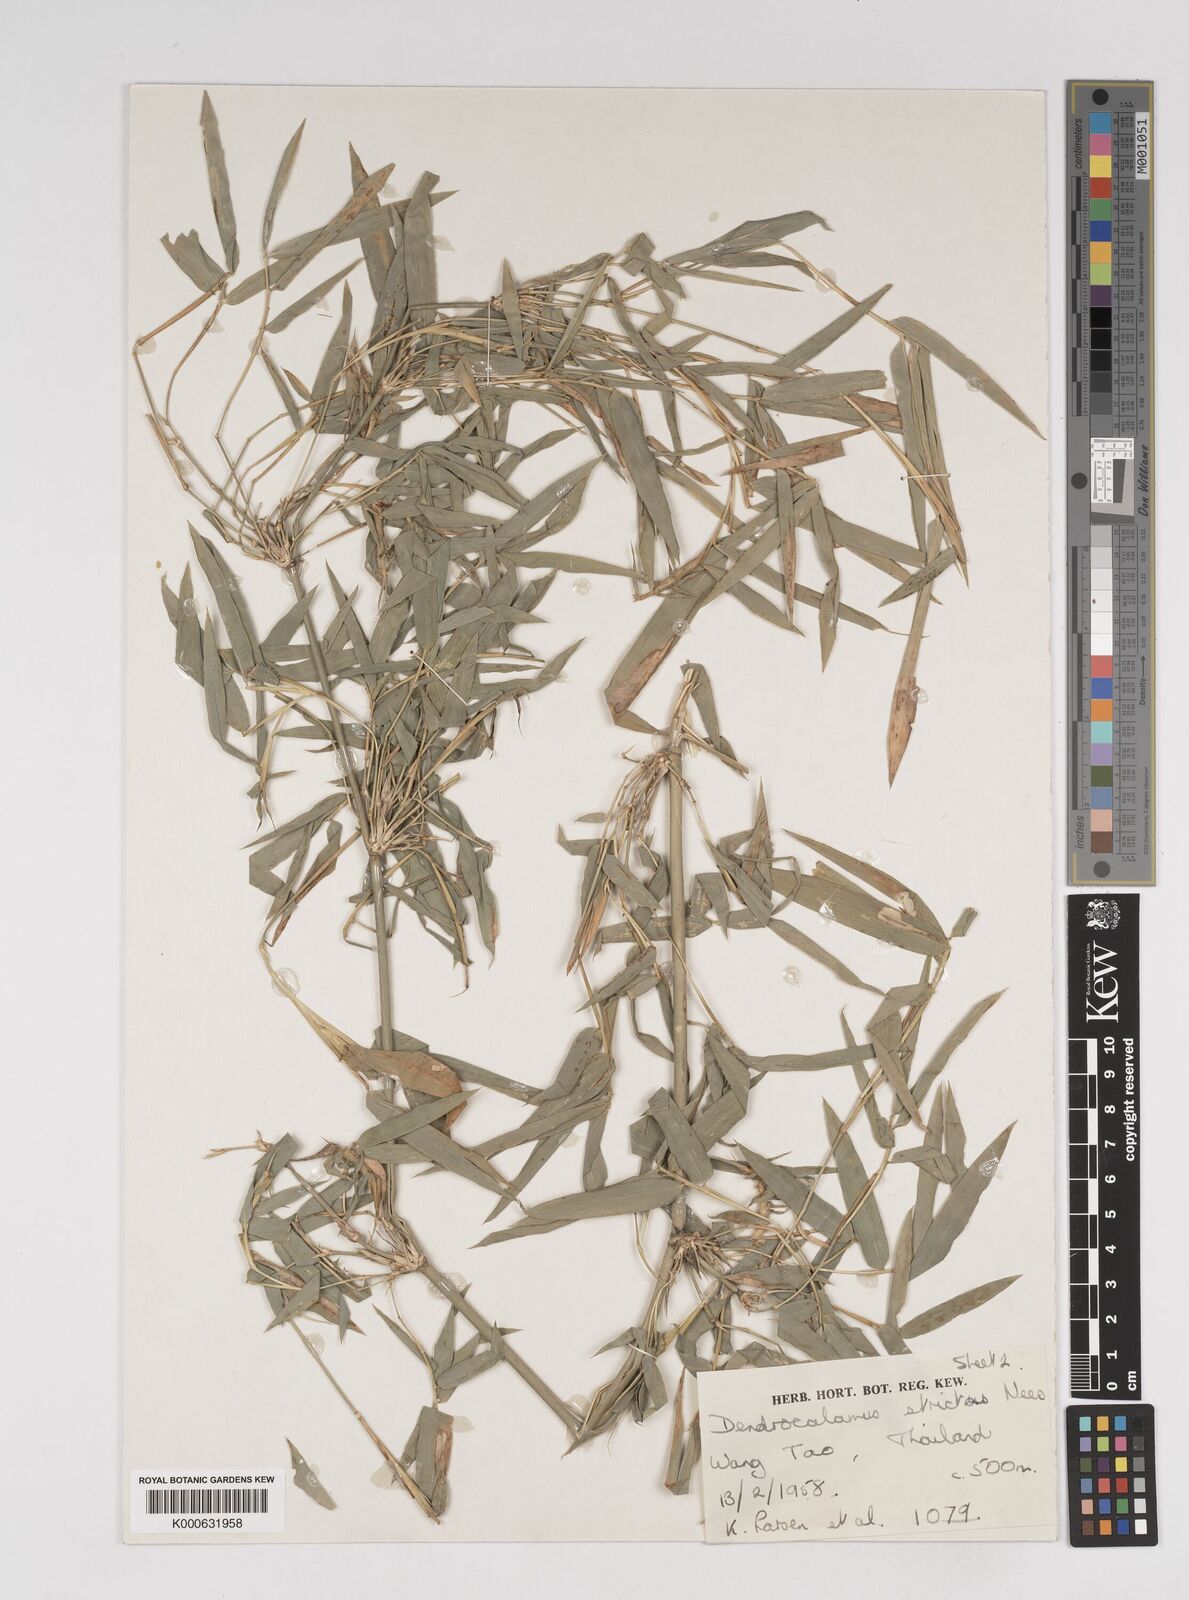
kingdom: Plantae
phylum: Tracheophyta
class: Liliopsida
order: Poales
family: Poaceae
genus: Dendrocalamus
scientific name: Dendrocalamus membranaceus
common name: White bamboo
